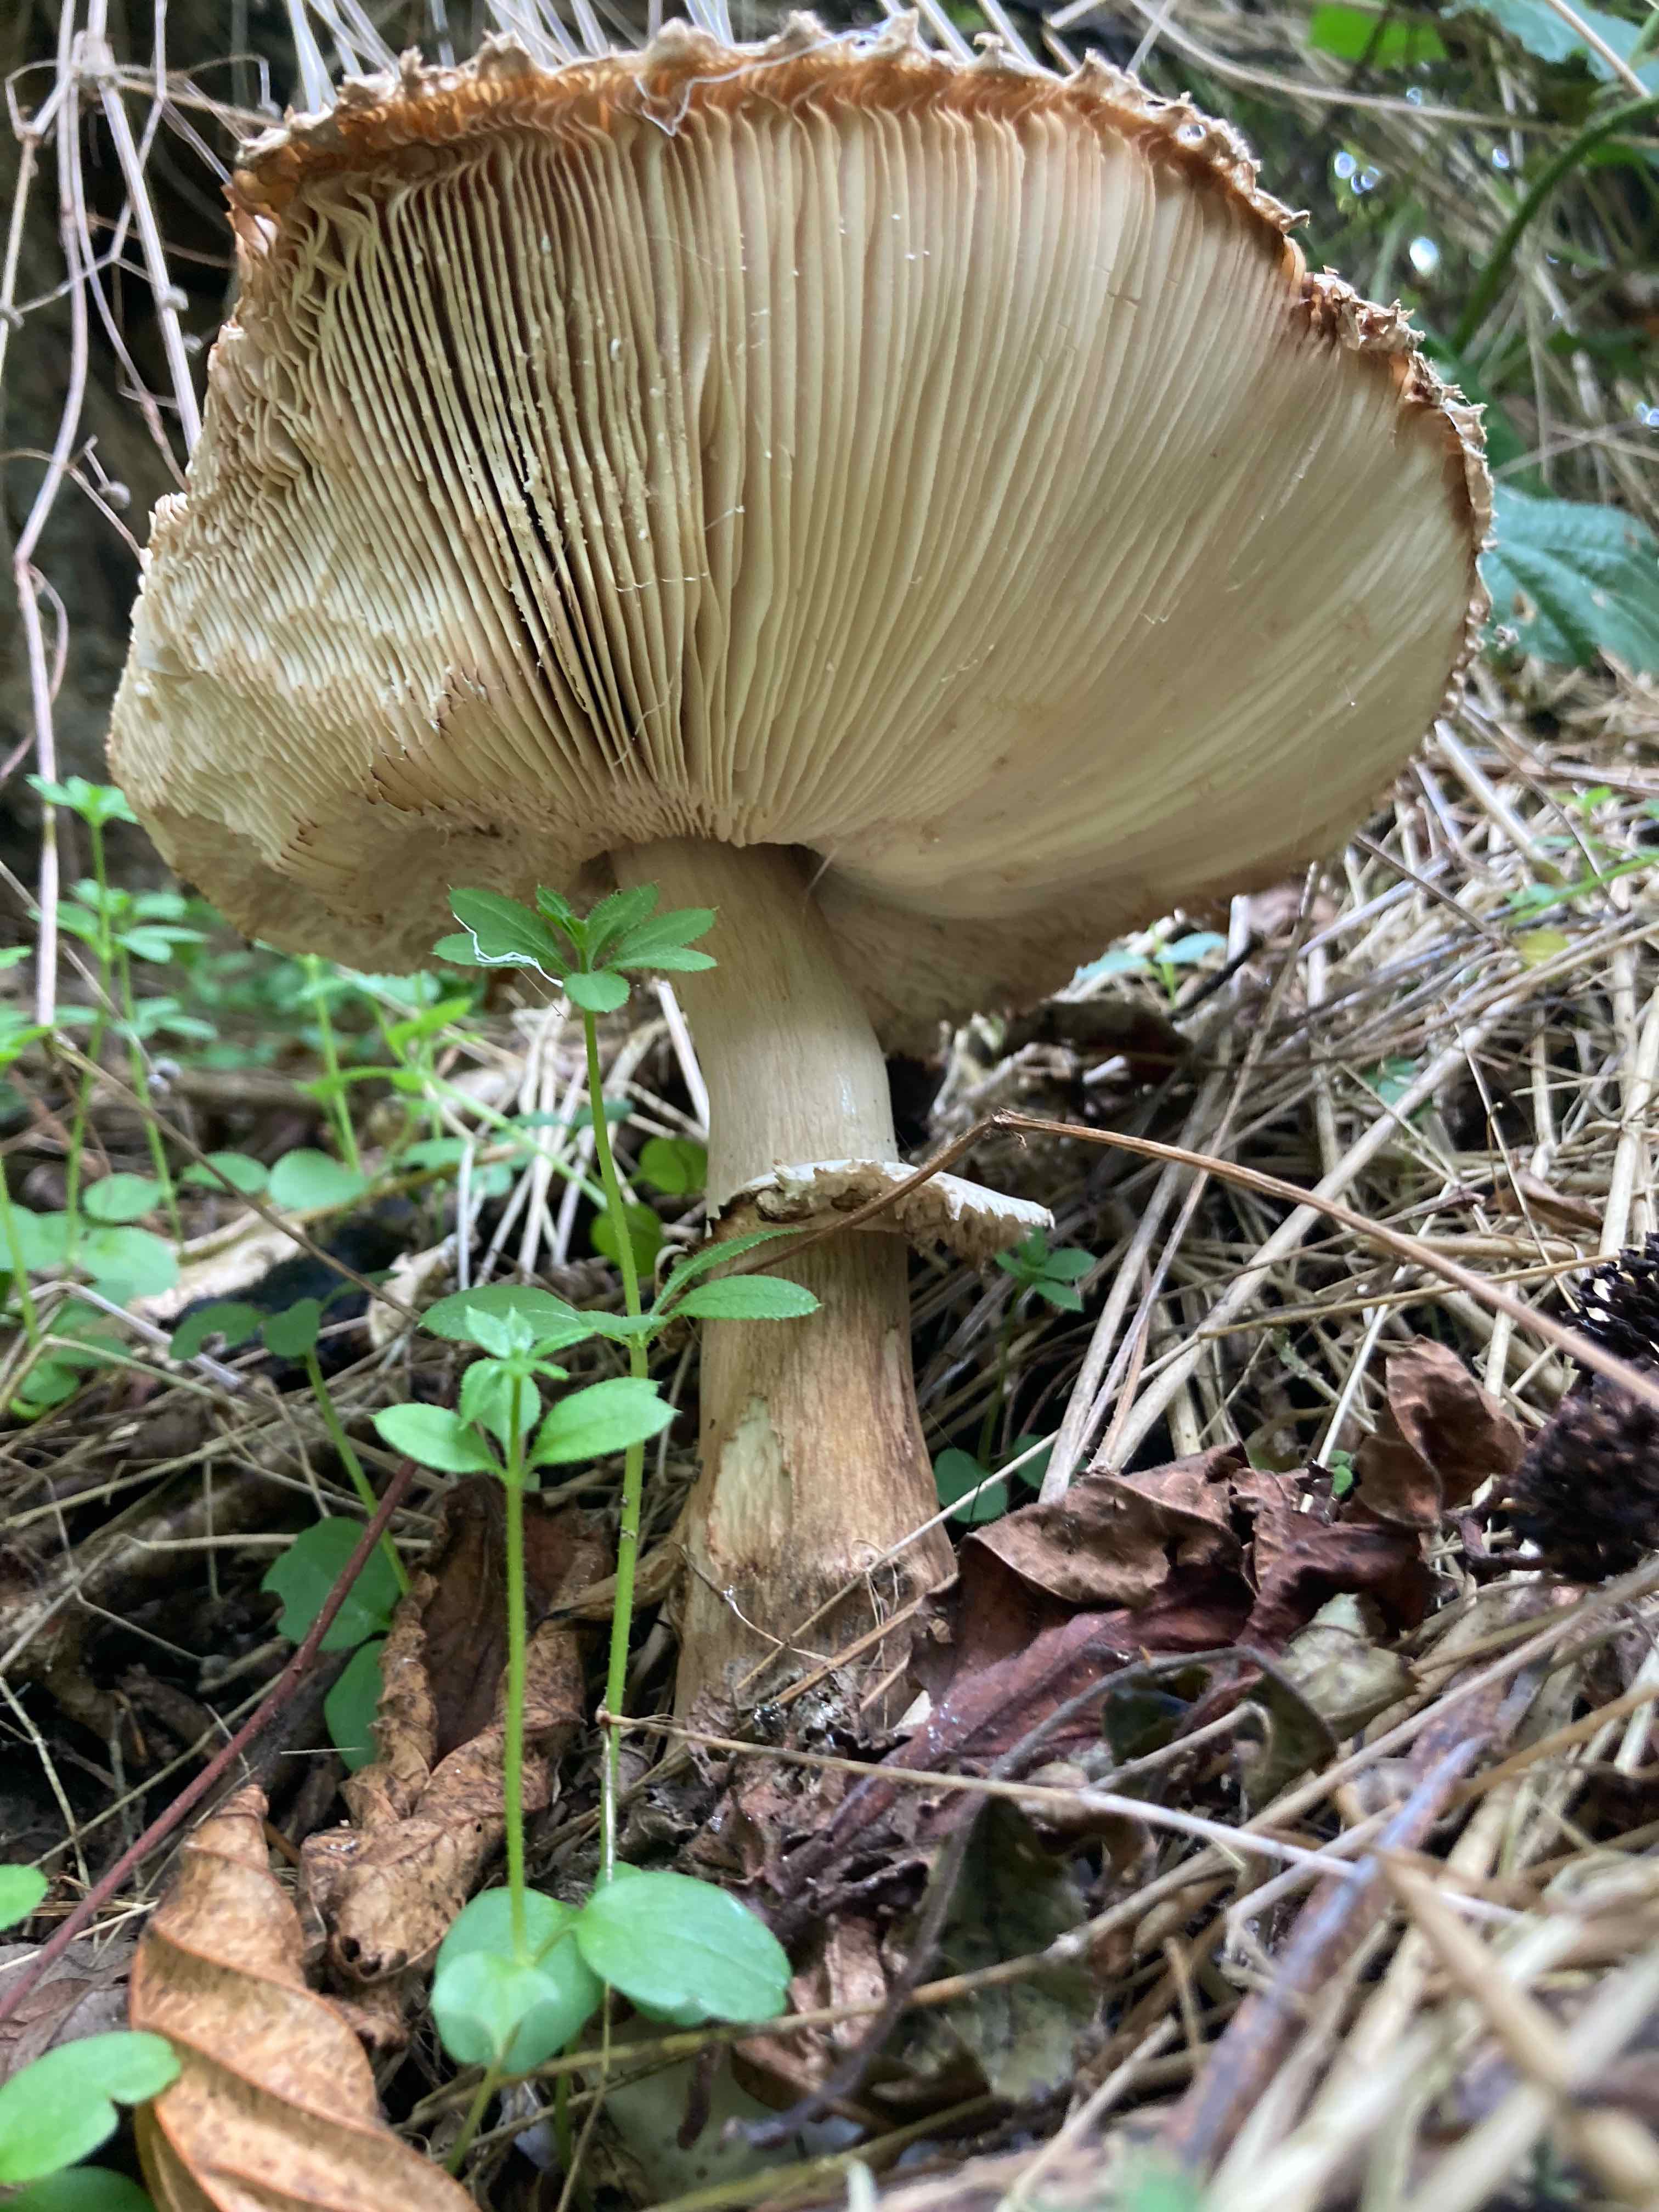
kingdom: Fungi
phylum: Basidiomycota
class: Agaricomycetes
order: Agaricales
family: Agaricaceae
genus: Chlorophyllum
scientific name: Chlorophyllum
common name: rabarberhat
